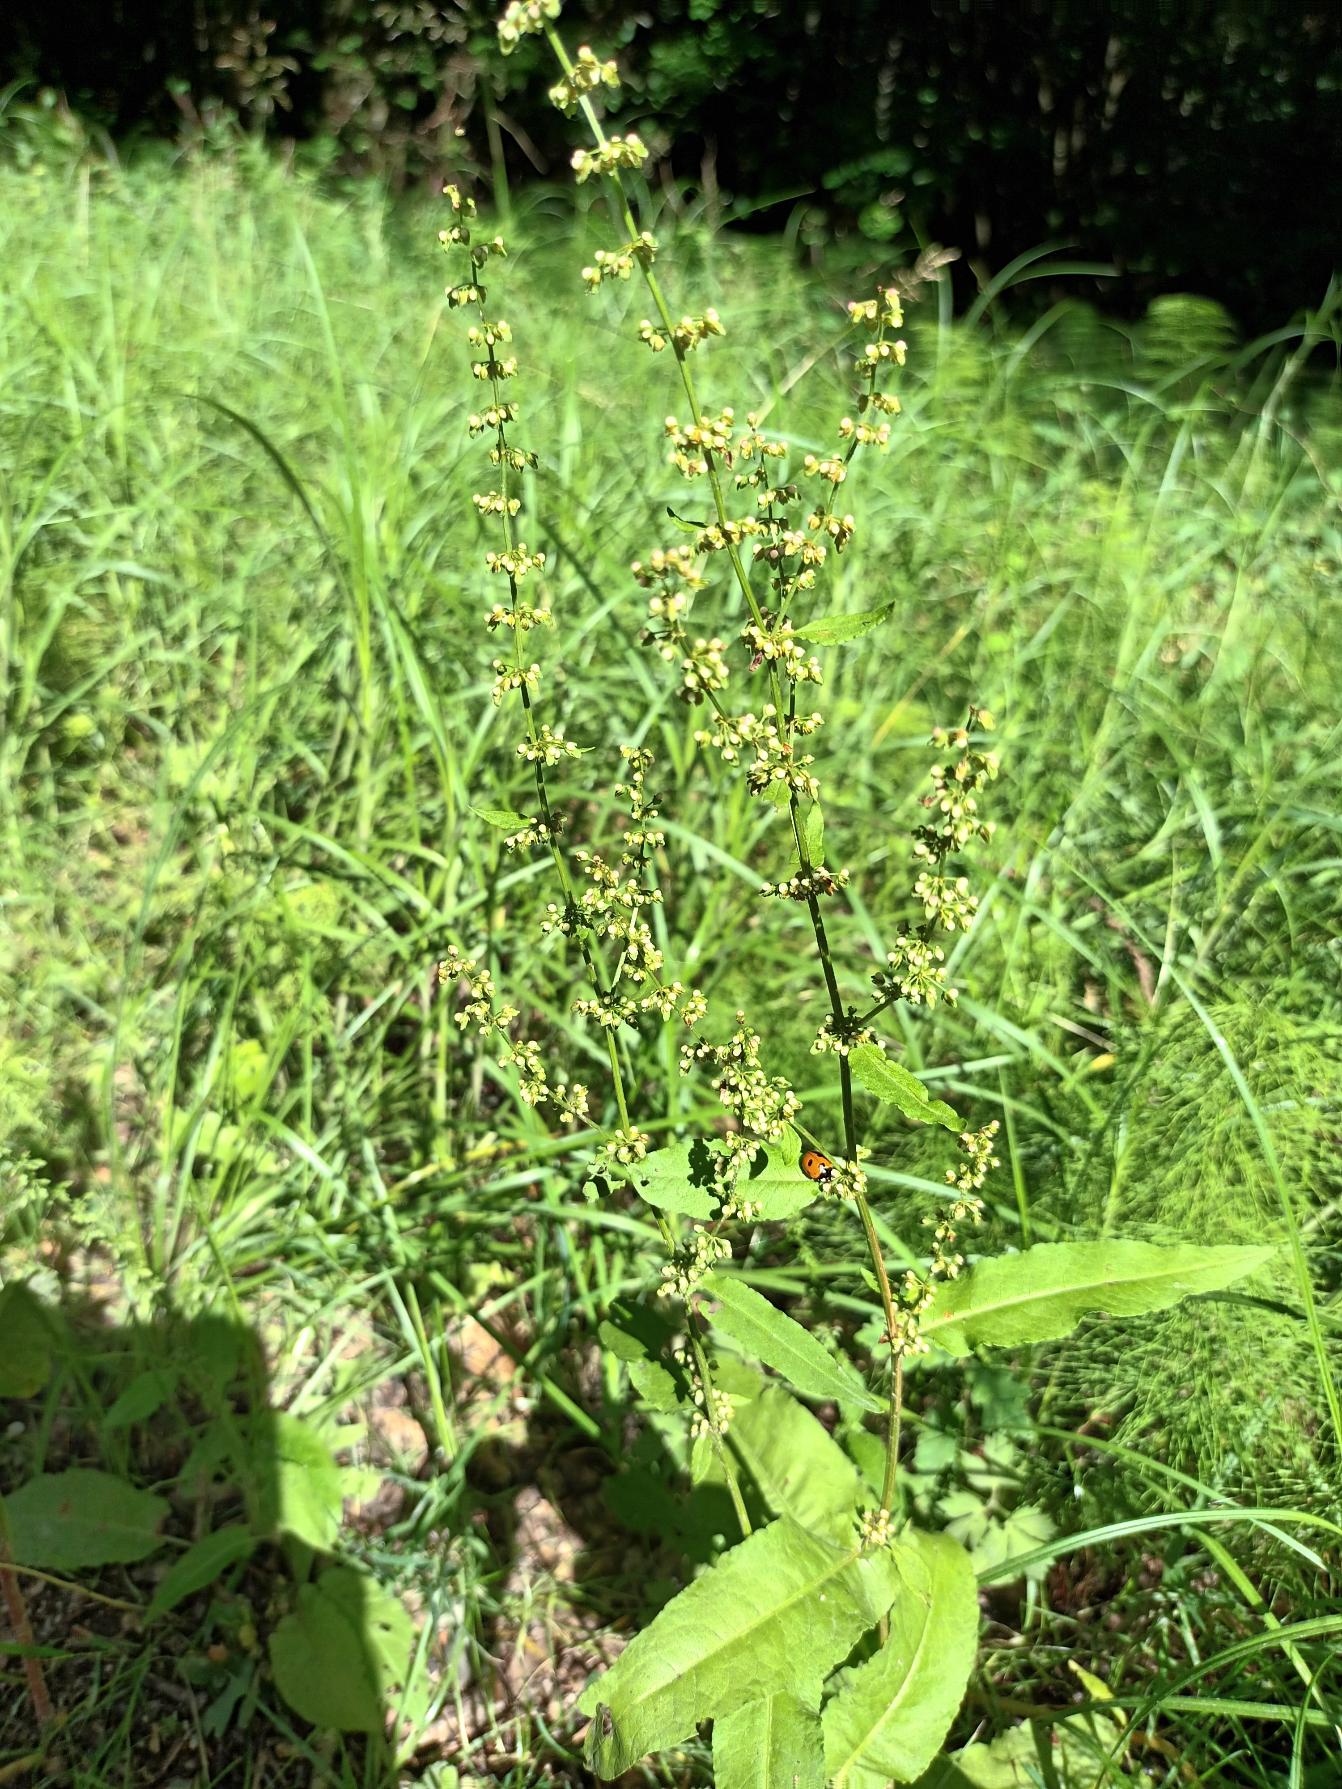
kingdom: Plantae
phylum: Tracheophyta
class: Magnoliopsida
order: Caryophyllales
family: Polygonaceae
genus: Rumex
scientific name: Rumex sanguineus
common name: Skov-skræppe
